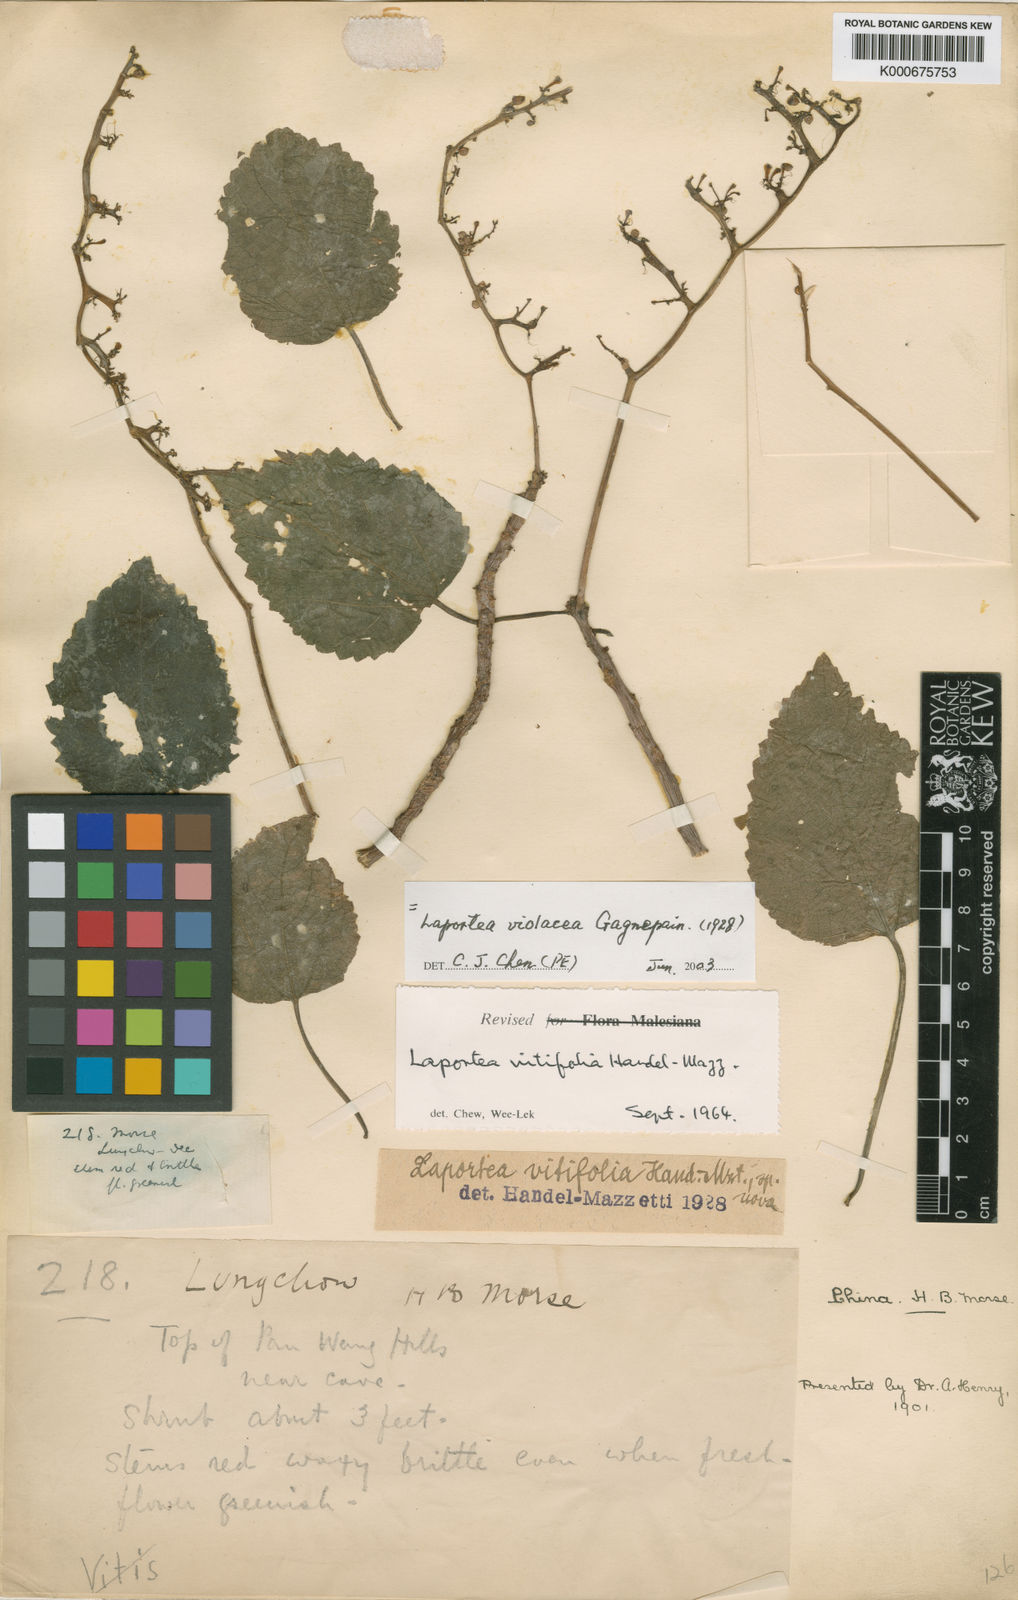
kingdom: Plantae
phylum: Tracheophyta
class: Magnoliopsida
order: Rosales
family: Urticaceae
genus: Laportea
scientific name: Laportea violacea
